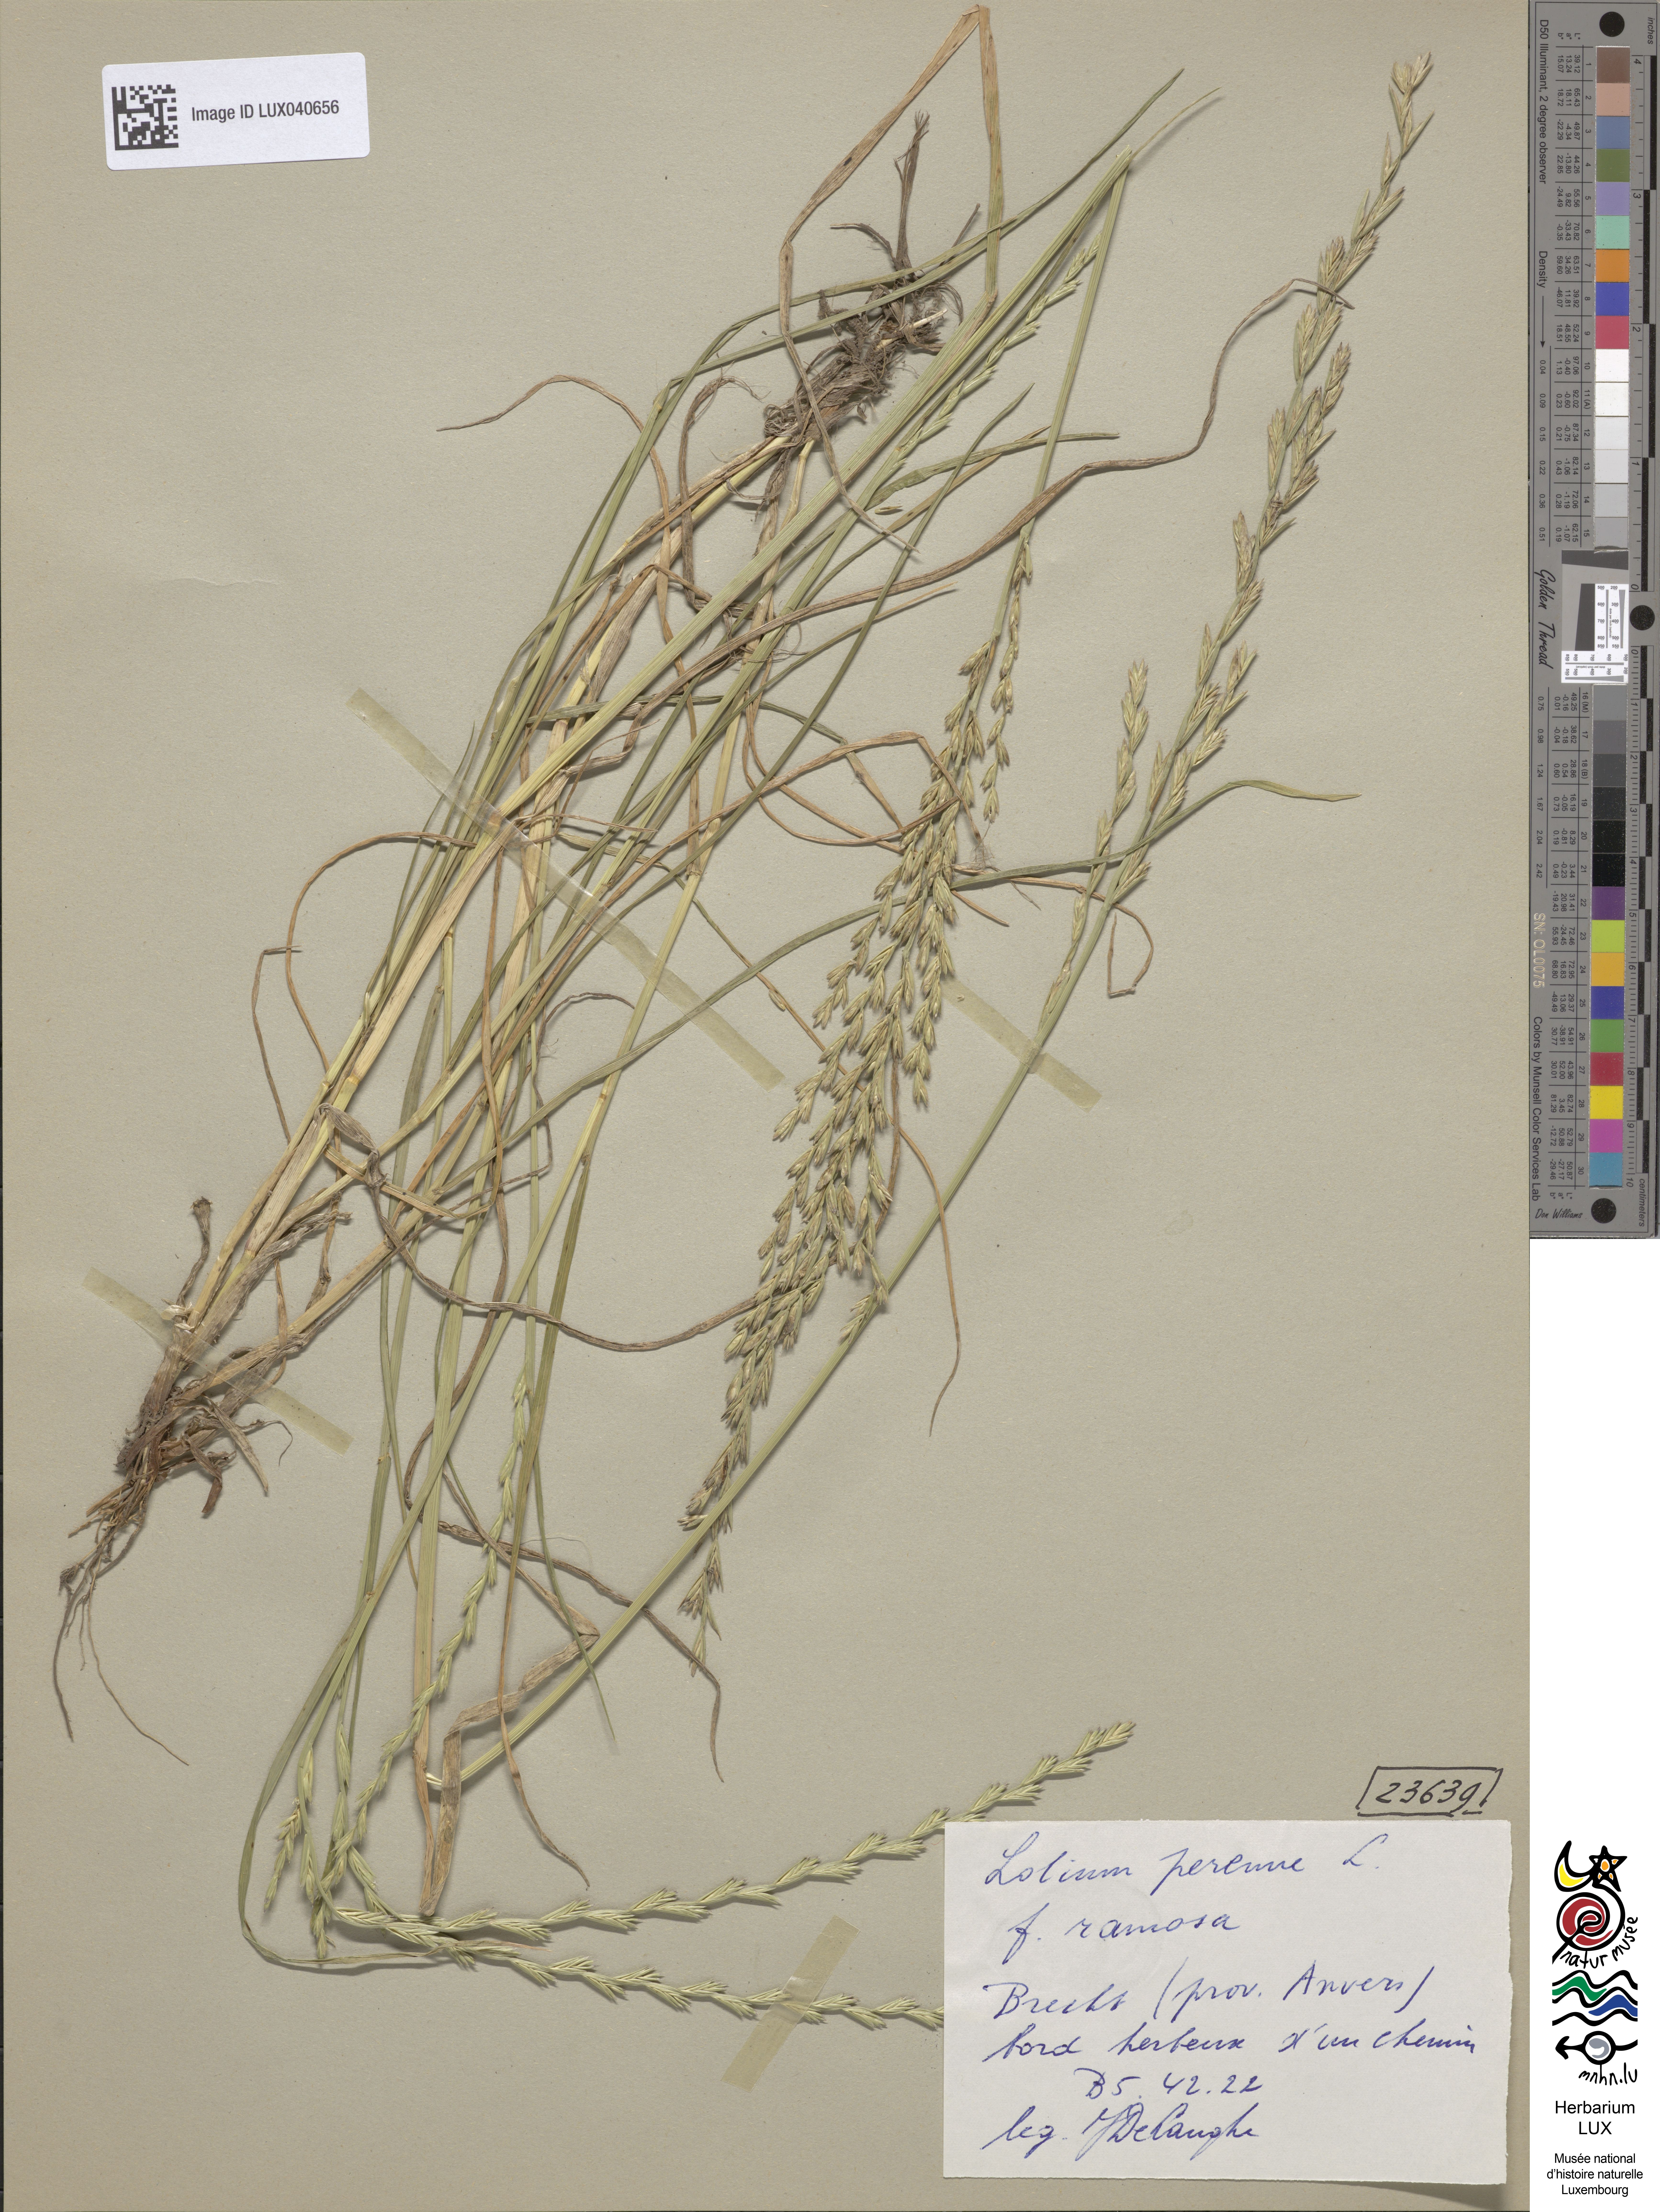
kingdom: Plantae
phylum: Tracheophyta
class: Liliopsida
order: Poales
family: Poaceae
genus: Lolium
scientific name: Lolium perenne
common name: Perennial ryegrass
